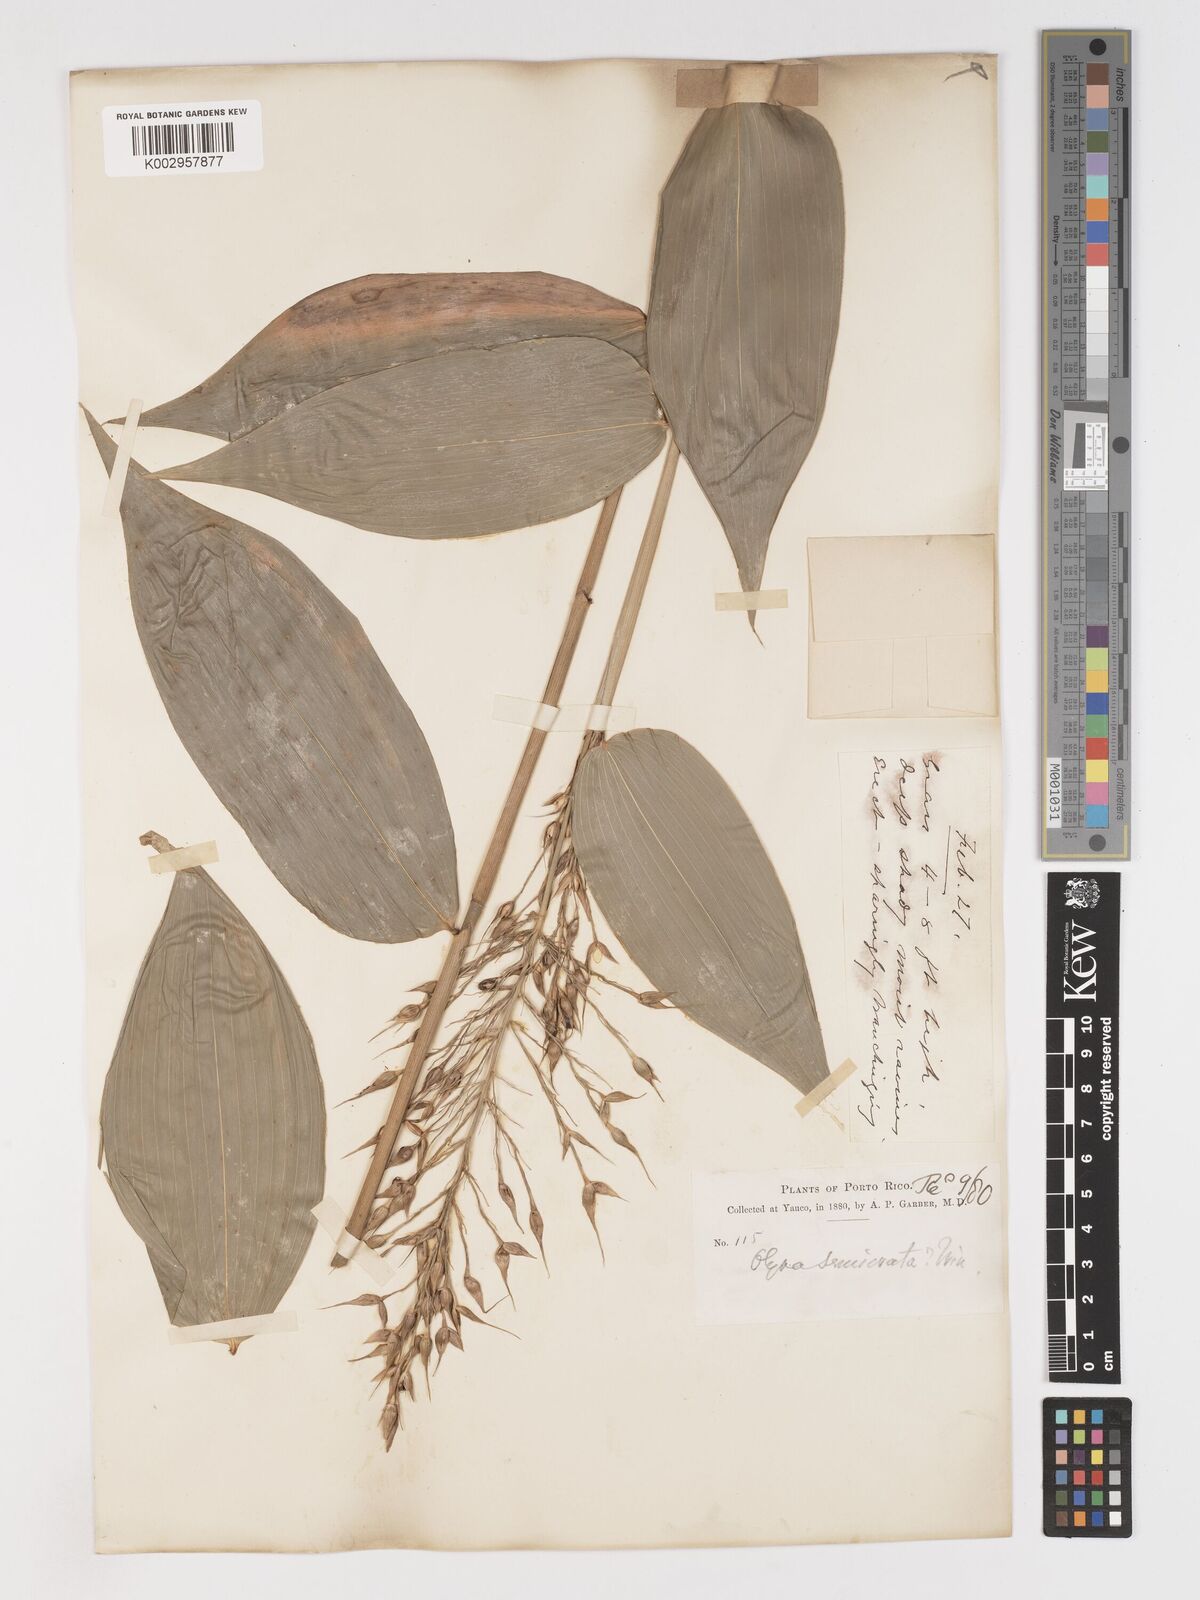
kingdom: Plantae
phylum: Tracheophyta
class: Liliopsida
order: Poales
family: Poaceae
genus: Olyra
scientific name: Olyra latifolia
